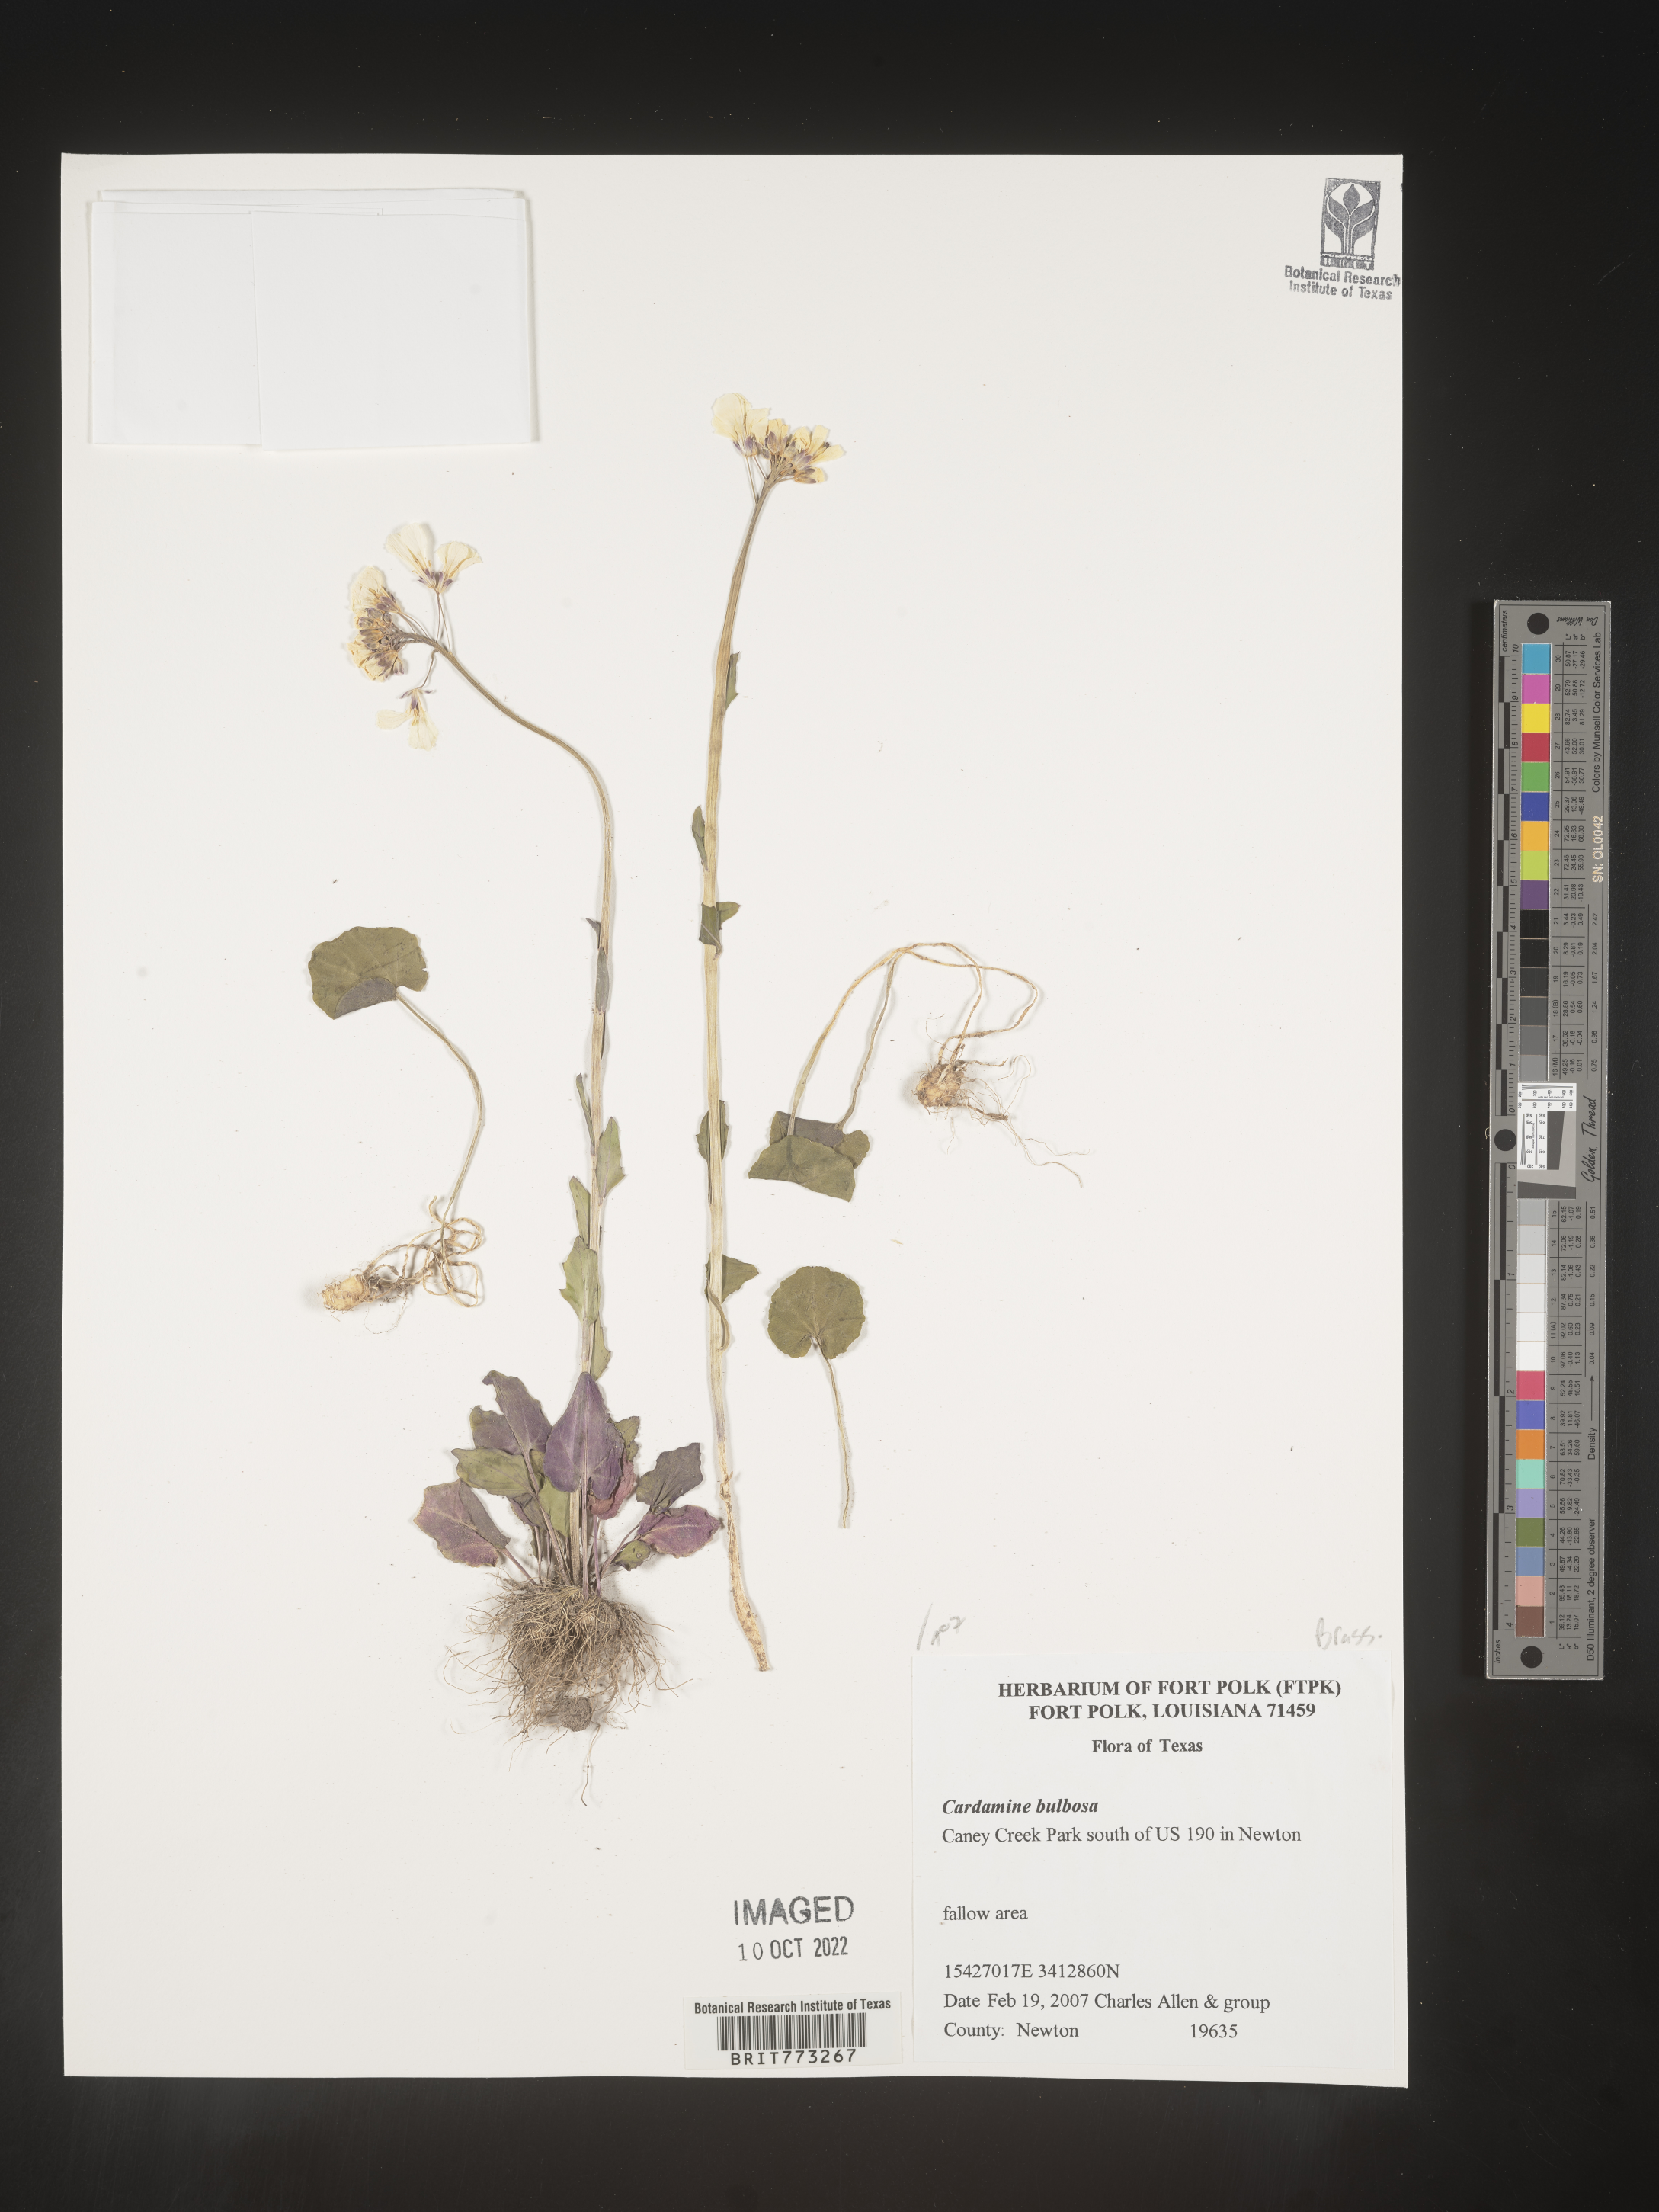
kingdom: Plantae
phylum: Tracheophyta
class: Magnoliopsida
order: Brassicales
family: Brassicaceae
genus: Cardamine
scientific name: Cardamine bulbosa
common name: Spring cress
